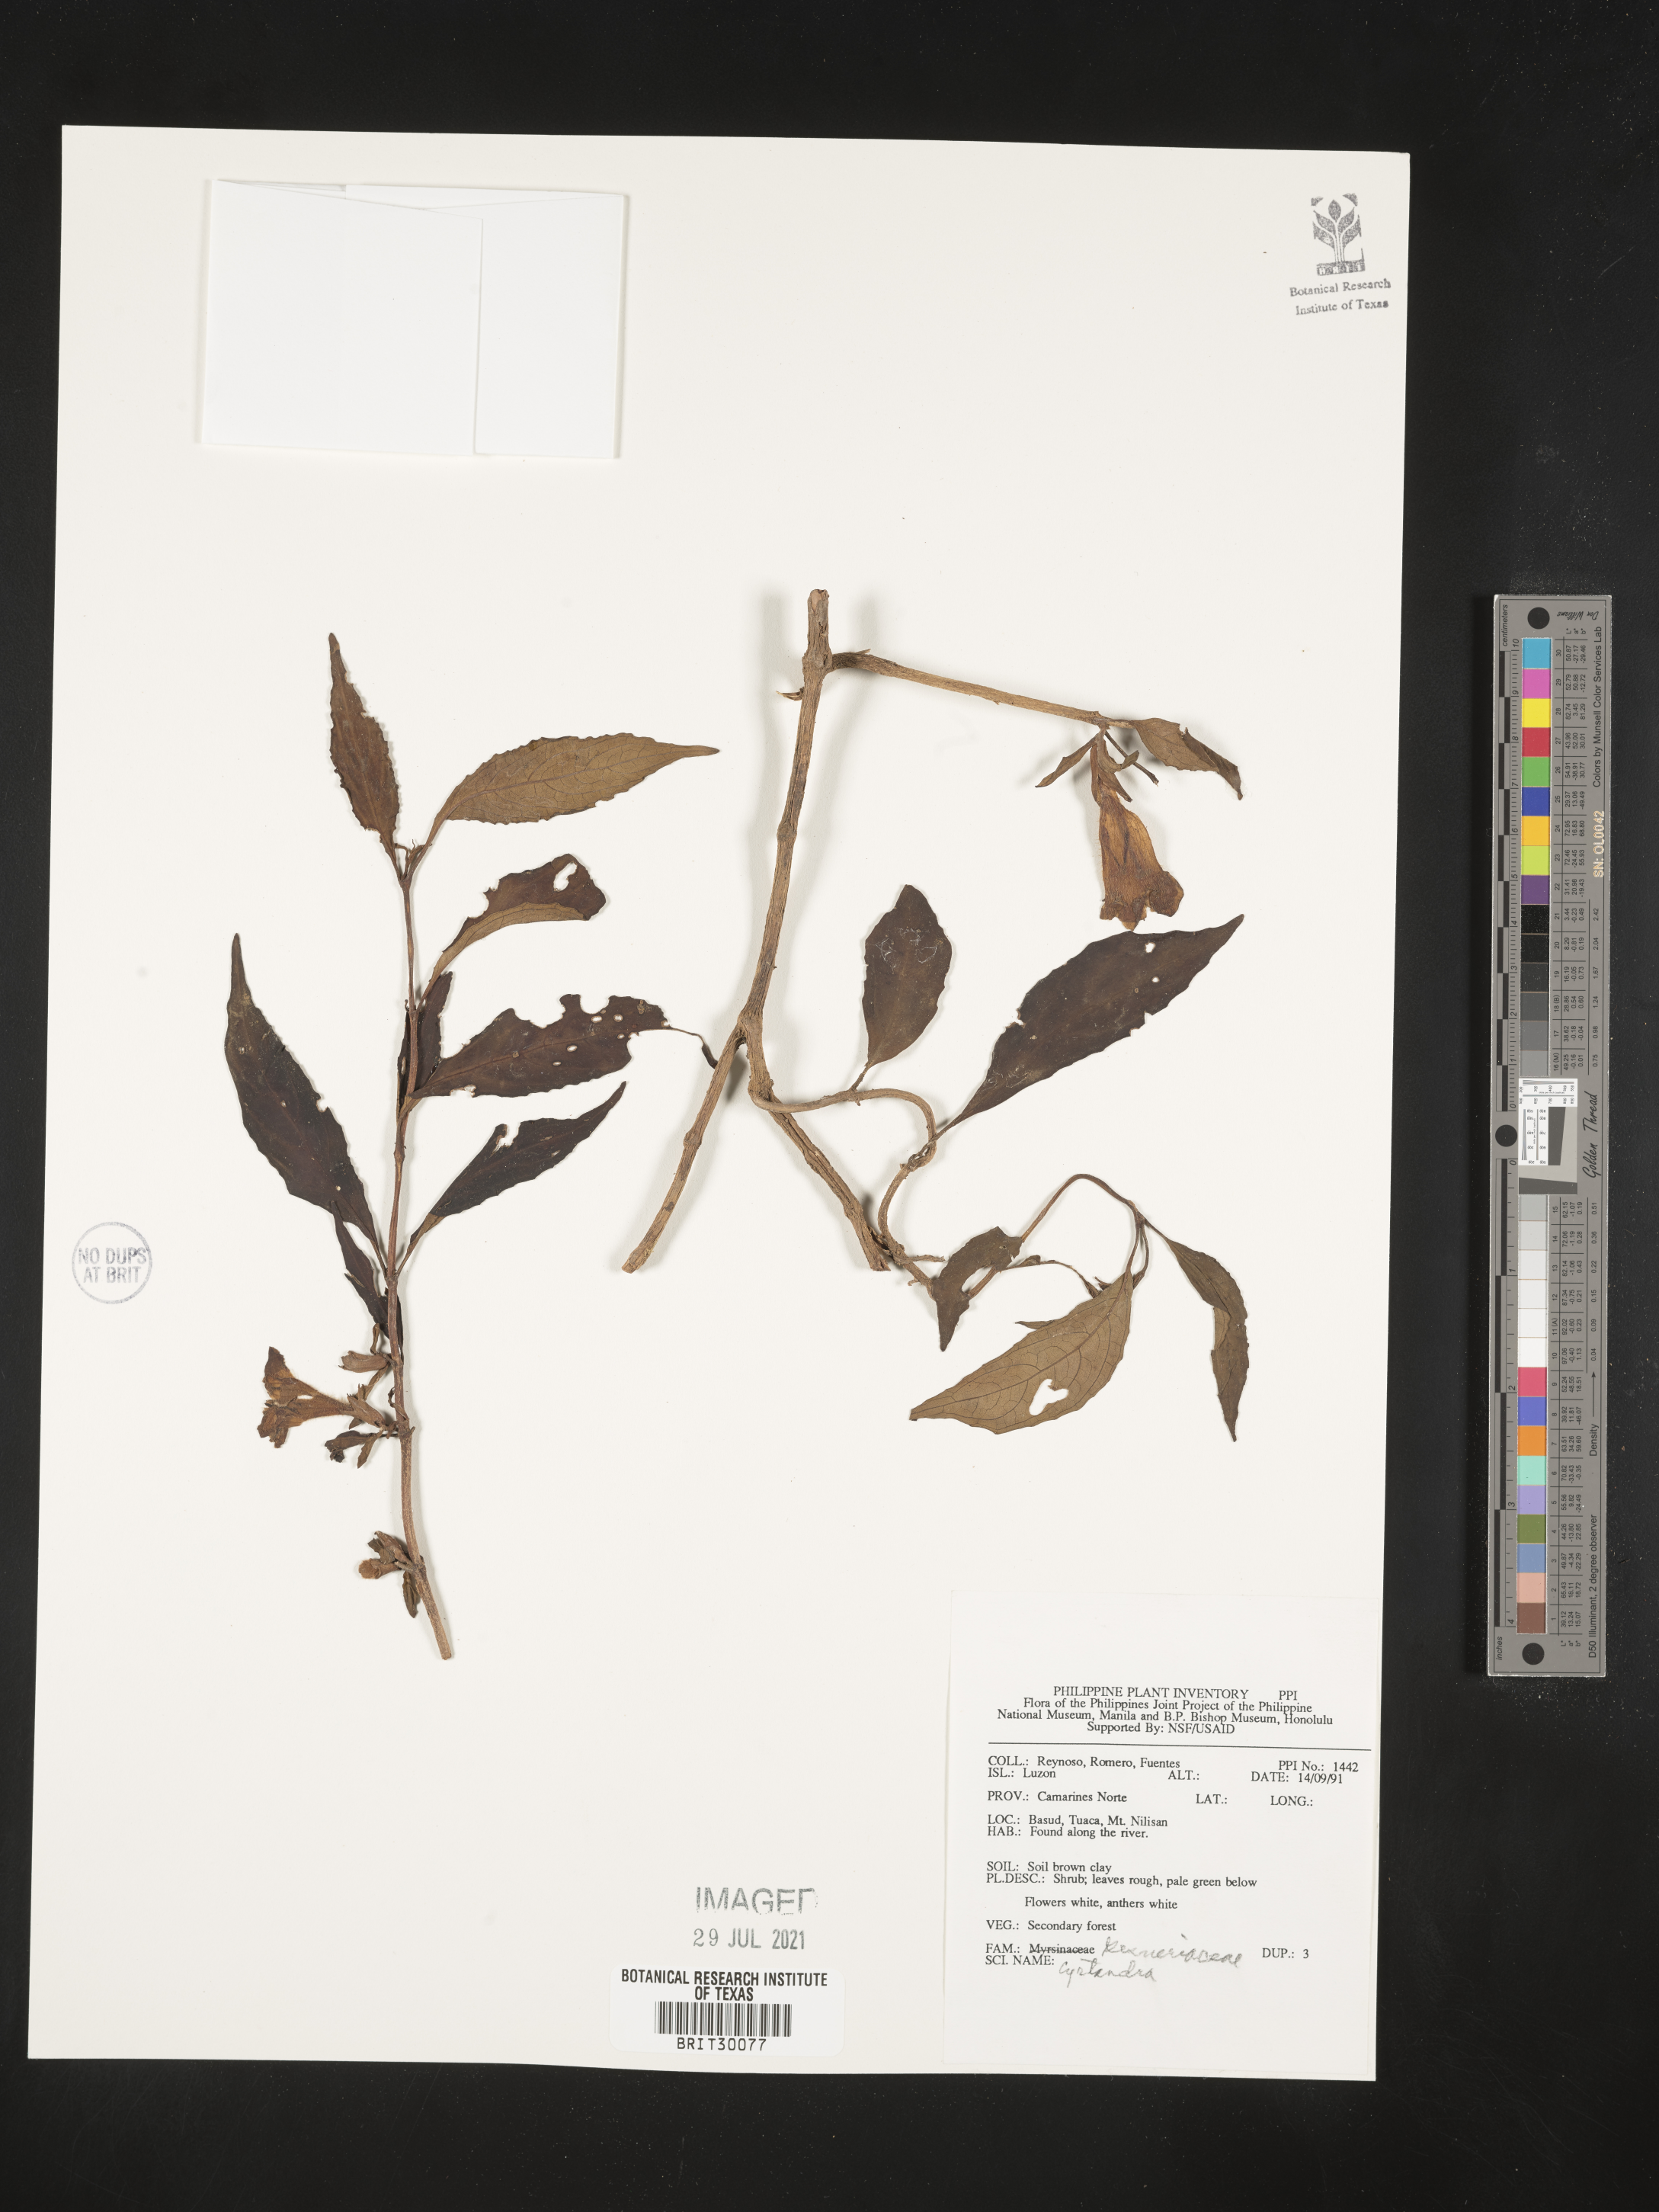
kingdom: Plantae
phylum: Tracheophyta
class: Magnoliopsida
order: Lamiales
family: Gesneriaceae
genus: Cyrtandra
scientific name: Cyrtandra
